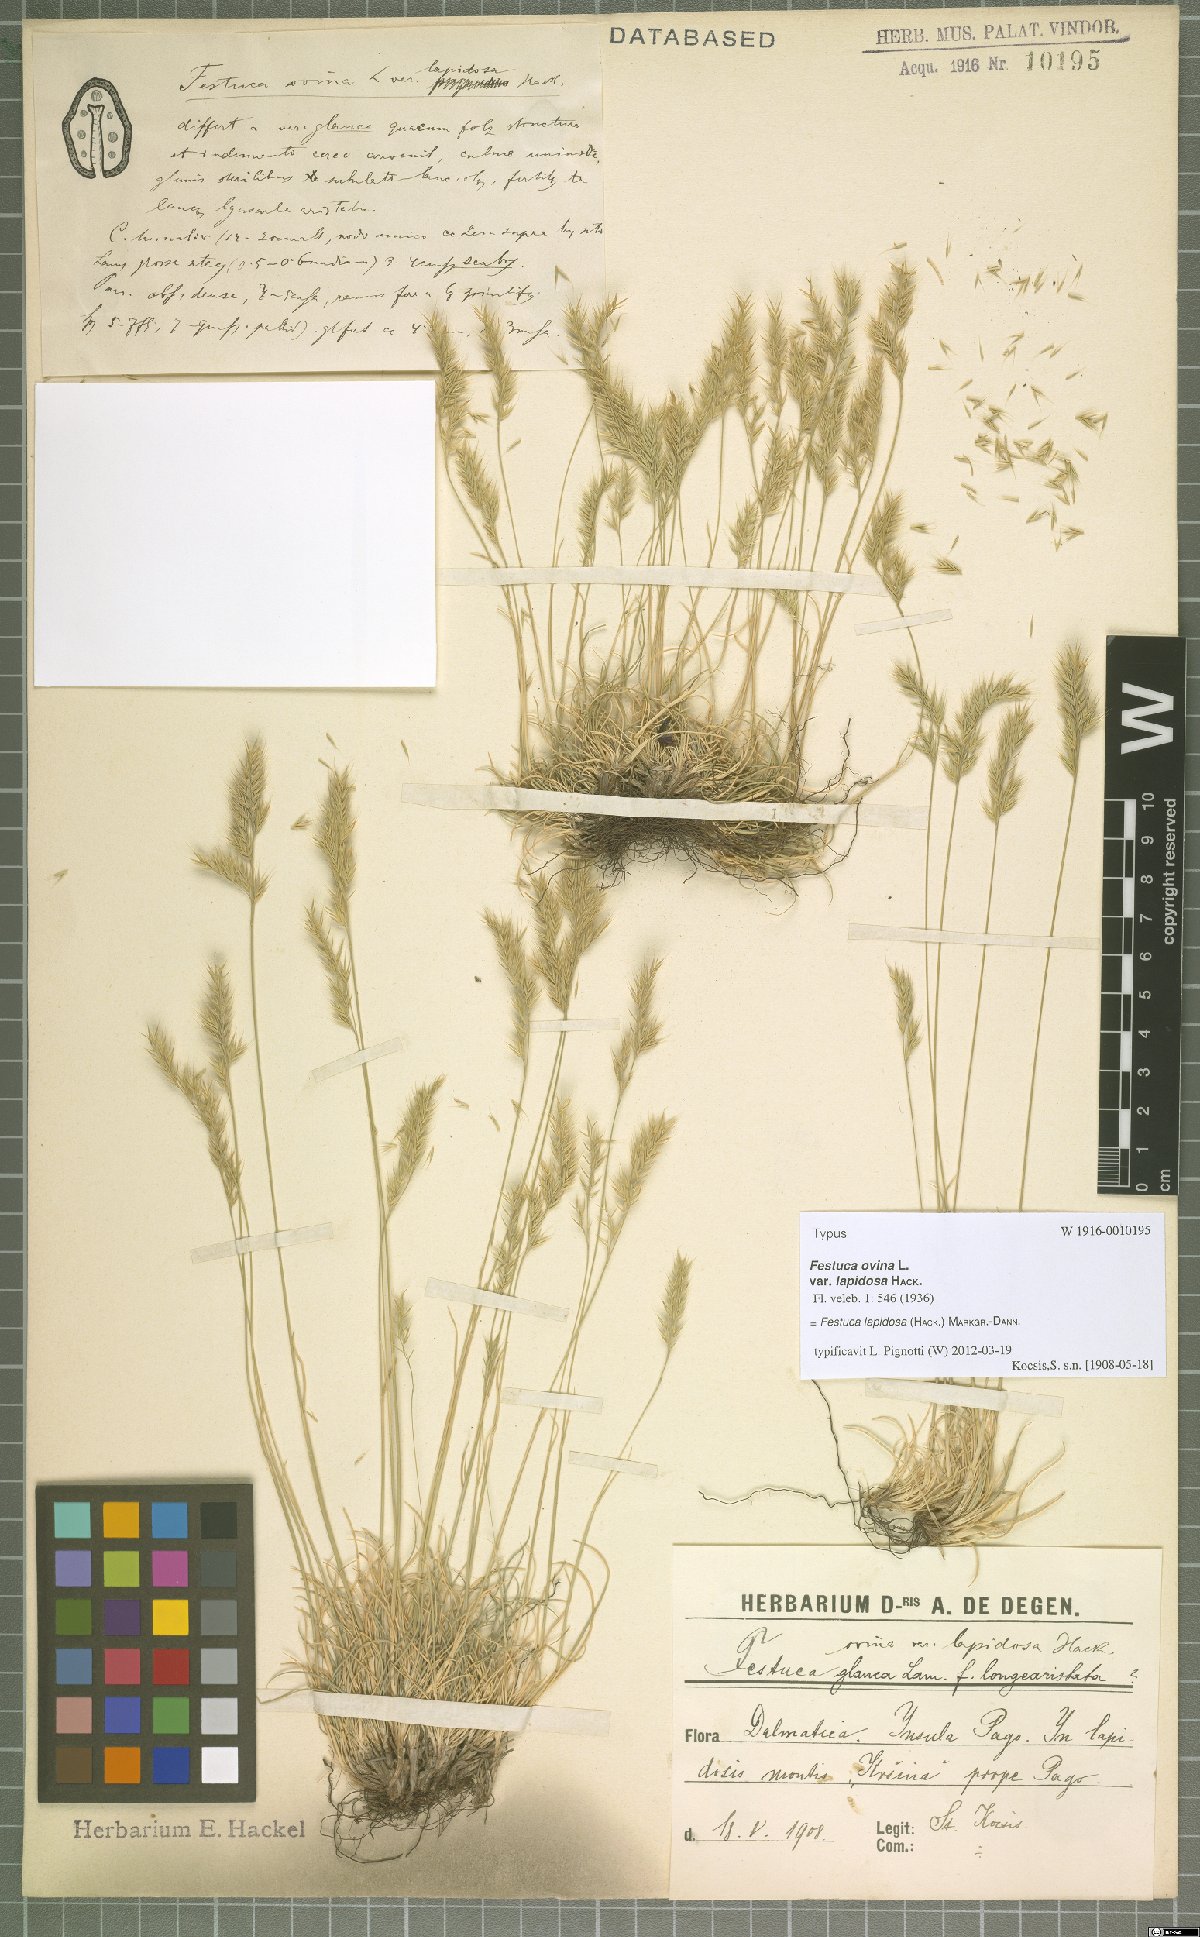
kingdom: Plantae
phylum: Tracheophyta
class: Liliopsida
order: Poales
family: Poaceae
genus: Festuca
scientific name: Festuca lapidosa
